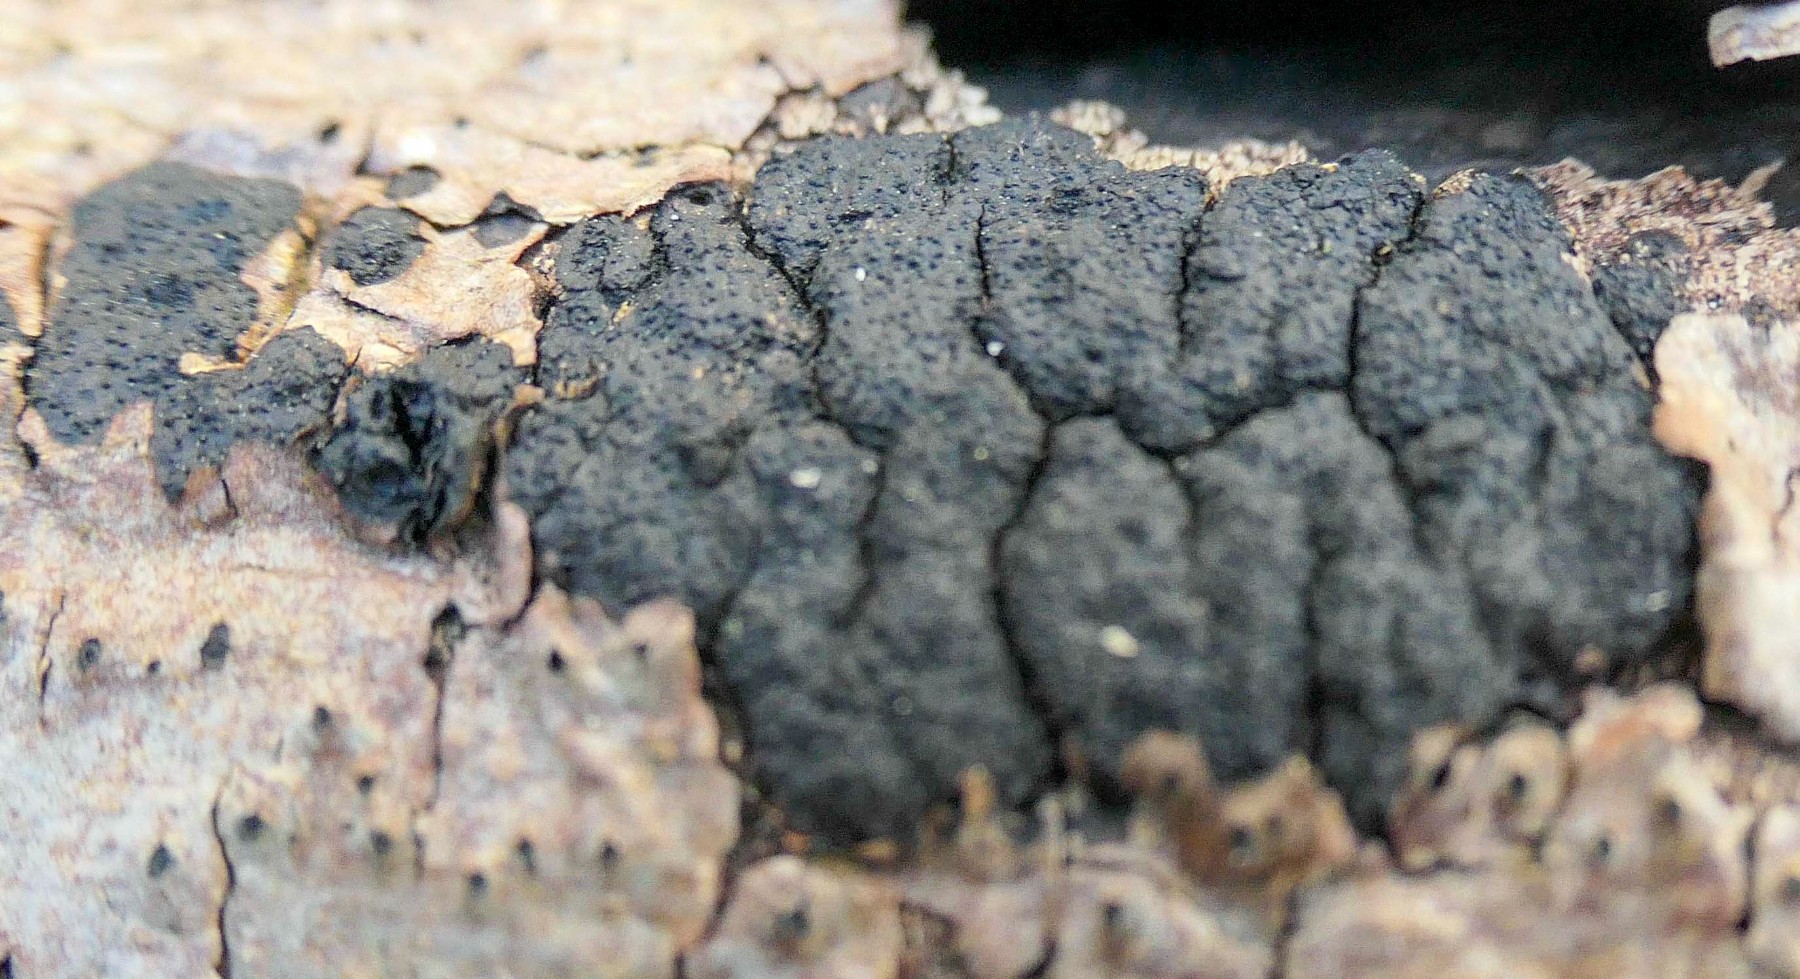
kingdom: Fungi
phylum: Ascomycota
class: Sordariomycetes
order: Xylariales
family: Diatrypaceae
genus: Diatrype
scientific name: Diatrype stigma
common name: udbredt kulskorpe
